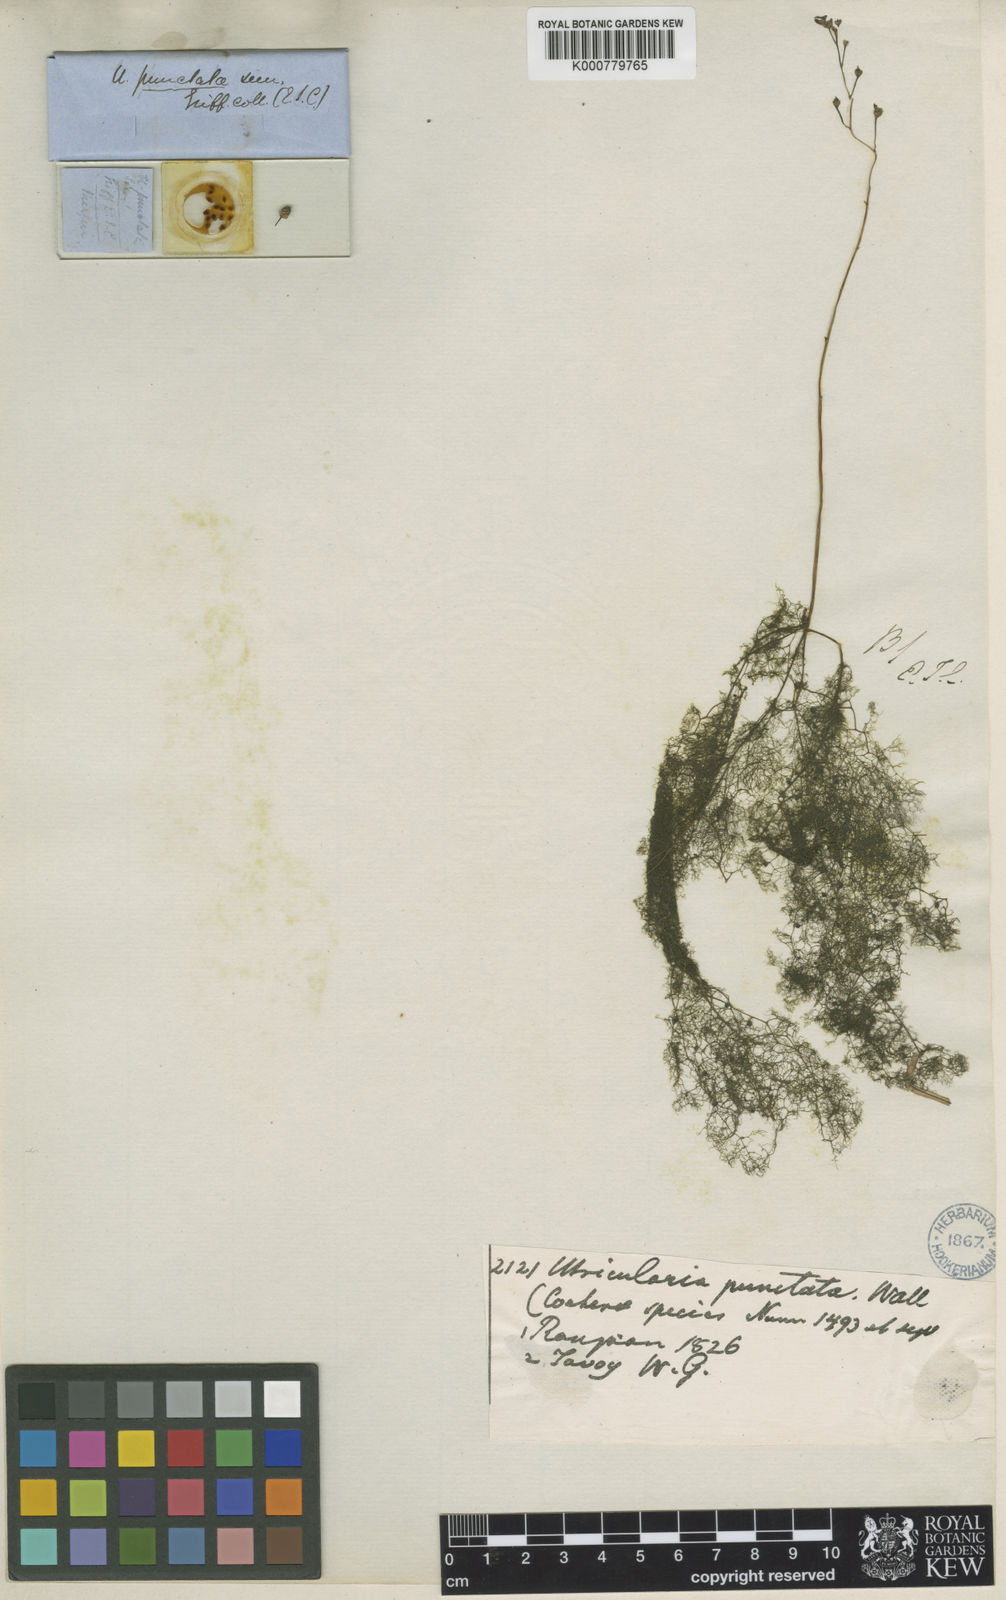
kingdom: Plantae
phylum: Tracheophyta
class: Magnoliopsida
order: Lamiales
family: Lentibulariaceae
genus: Utricularia
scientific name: Utricularia
